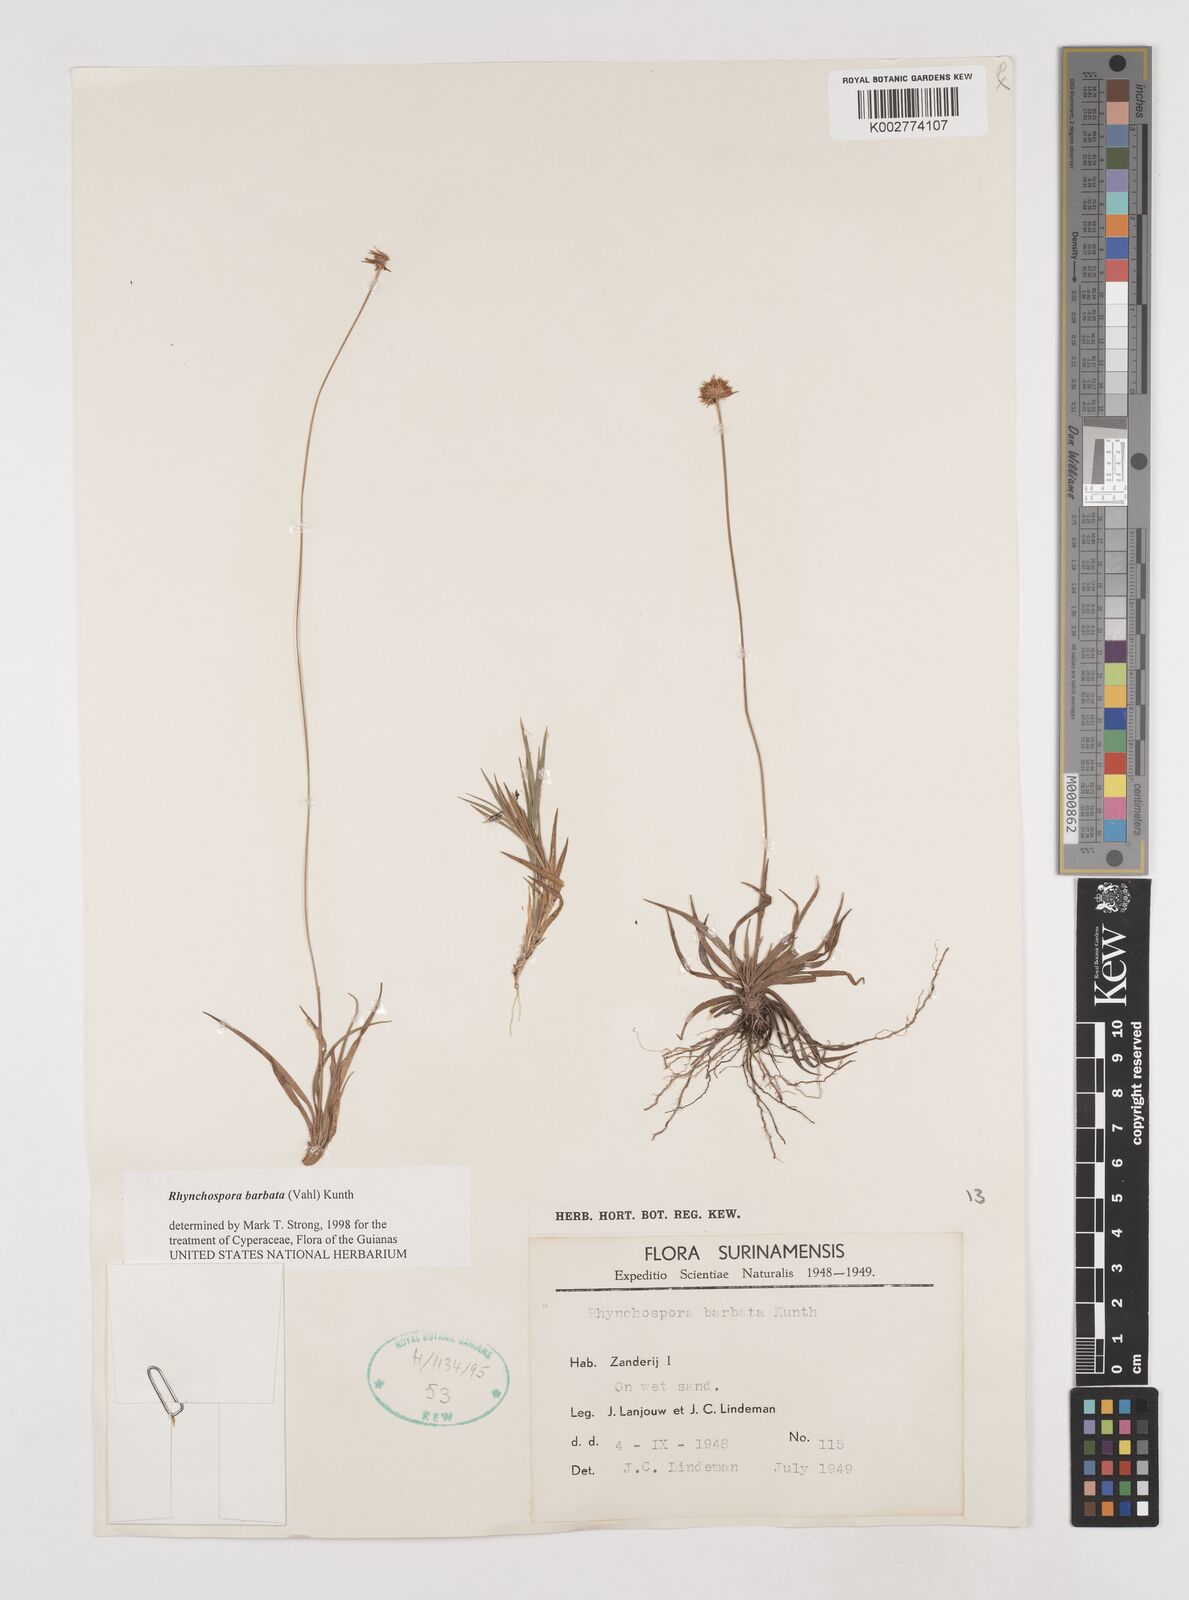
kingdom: Plantae
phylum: Tracheophyta
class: Liliopsida
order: Poales
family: Cyperaceae
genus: Rhynchospora
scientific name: Rhynchospora barbata
